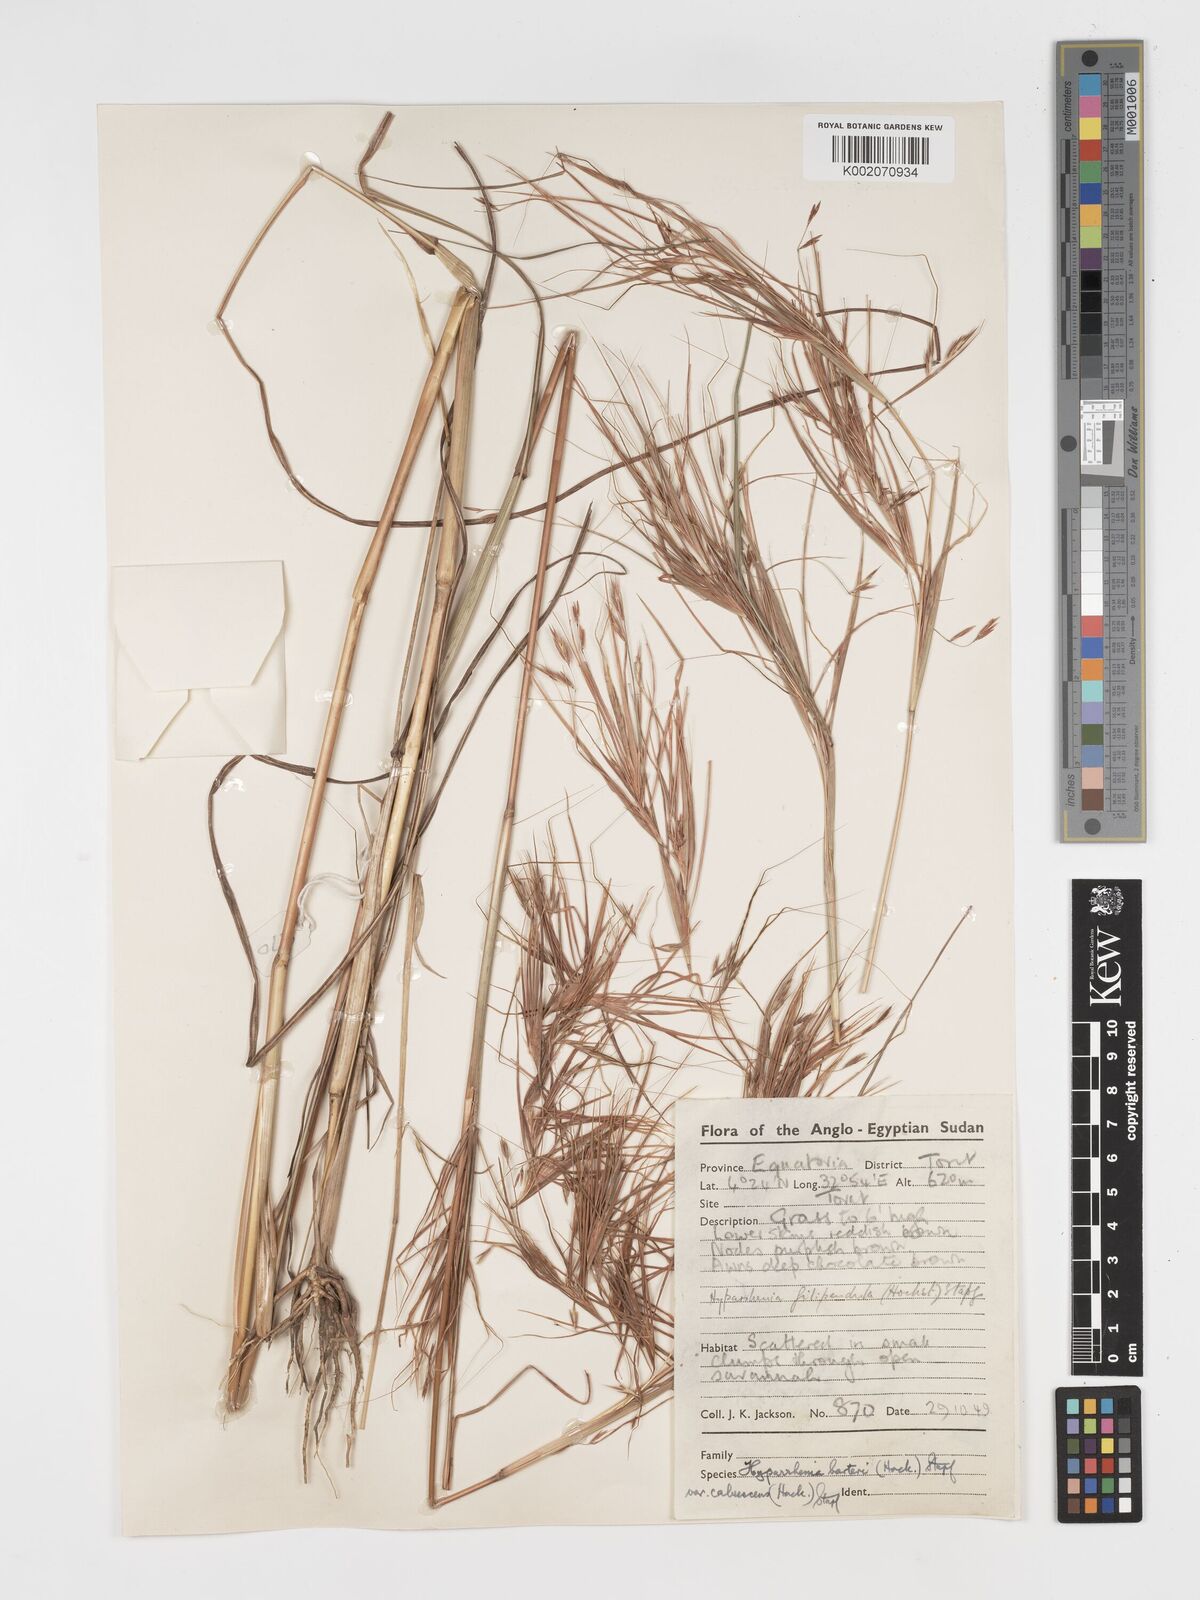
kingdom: Plantae
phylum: Tracheophyta
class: Liliopsida
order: Poales
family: Poaceae
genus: Hyparrhenia
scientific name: Hyparrhenia figariana
